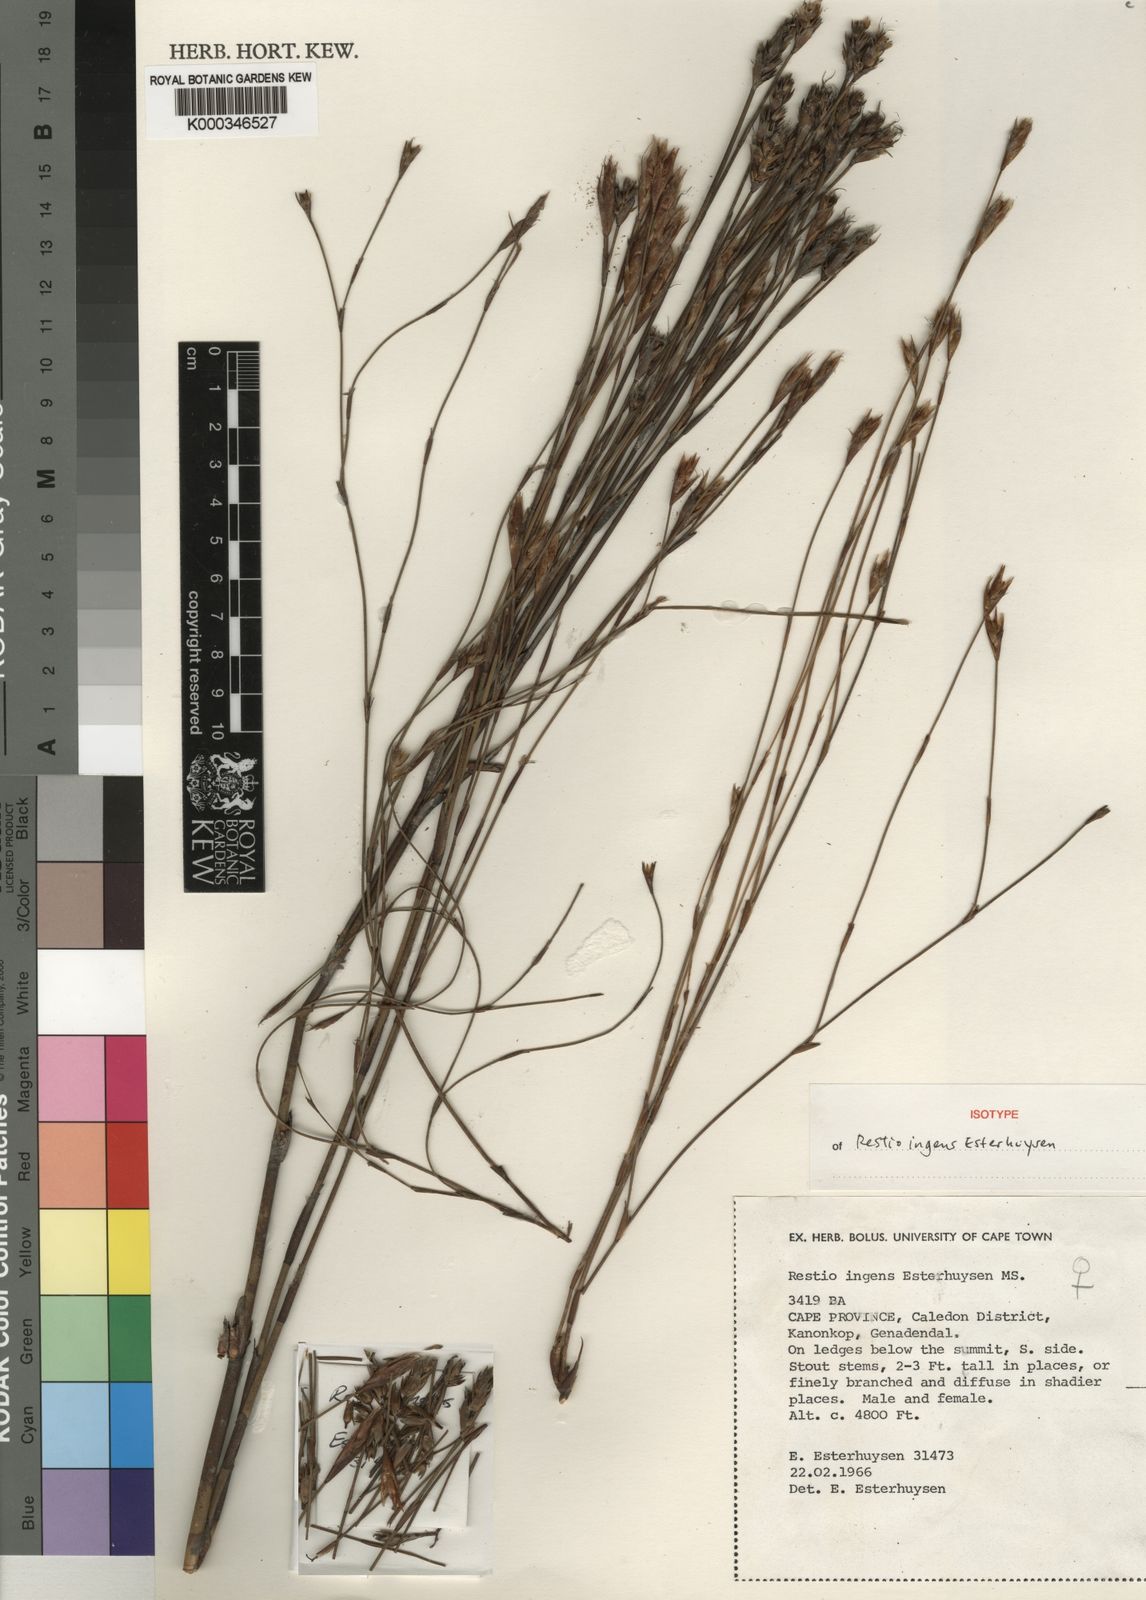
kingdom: Plantae
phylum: Tracheophyta
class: Liliopsida
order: Poales
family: Restionaceae
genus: Restio
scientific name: Restio ingens
